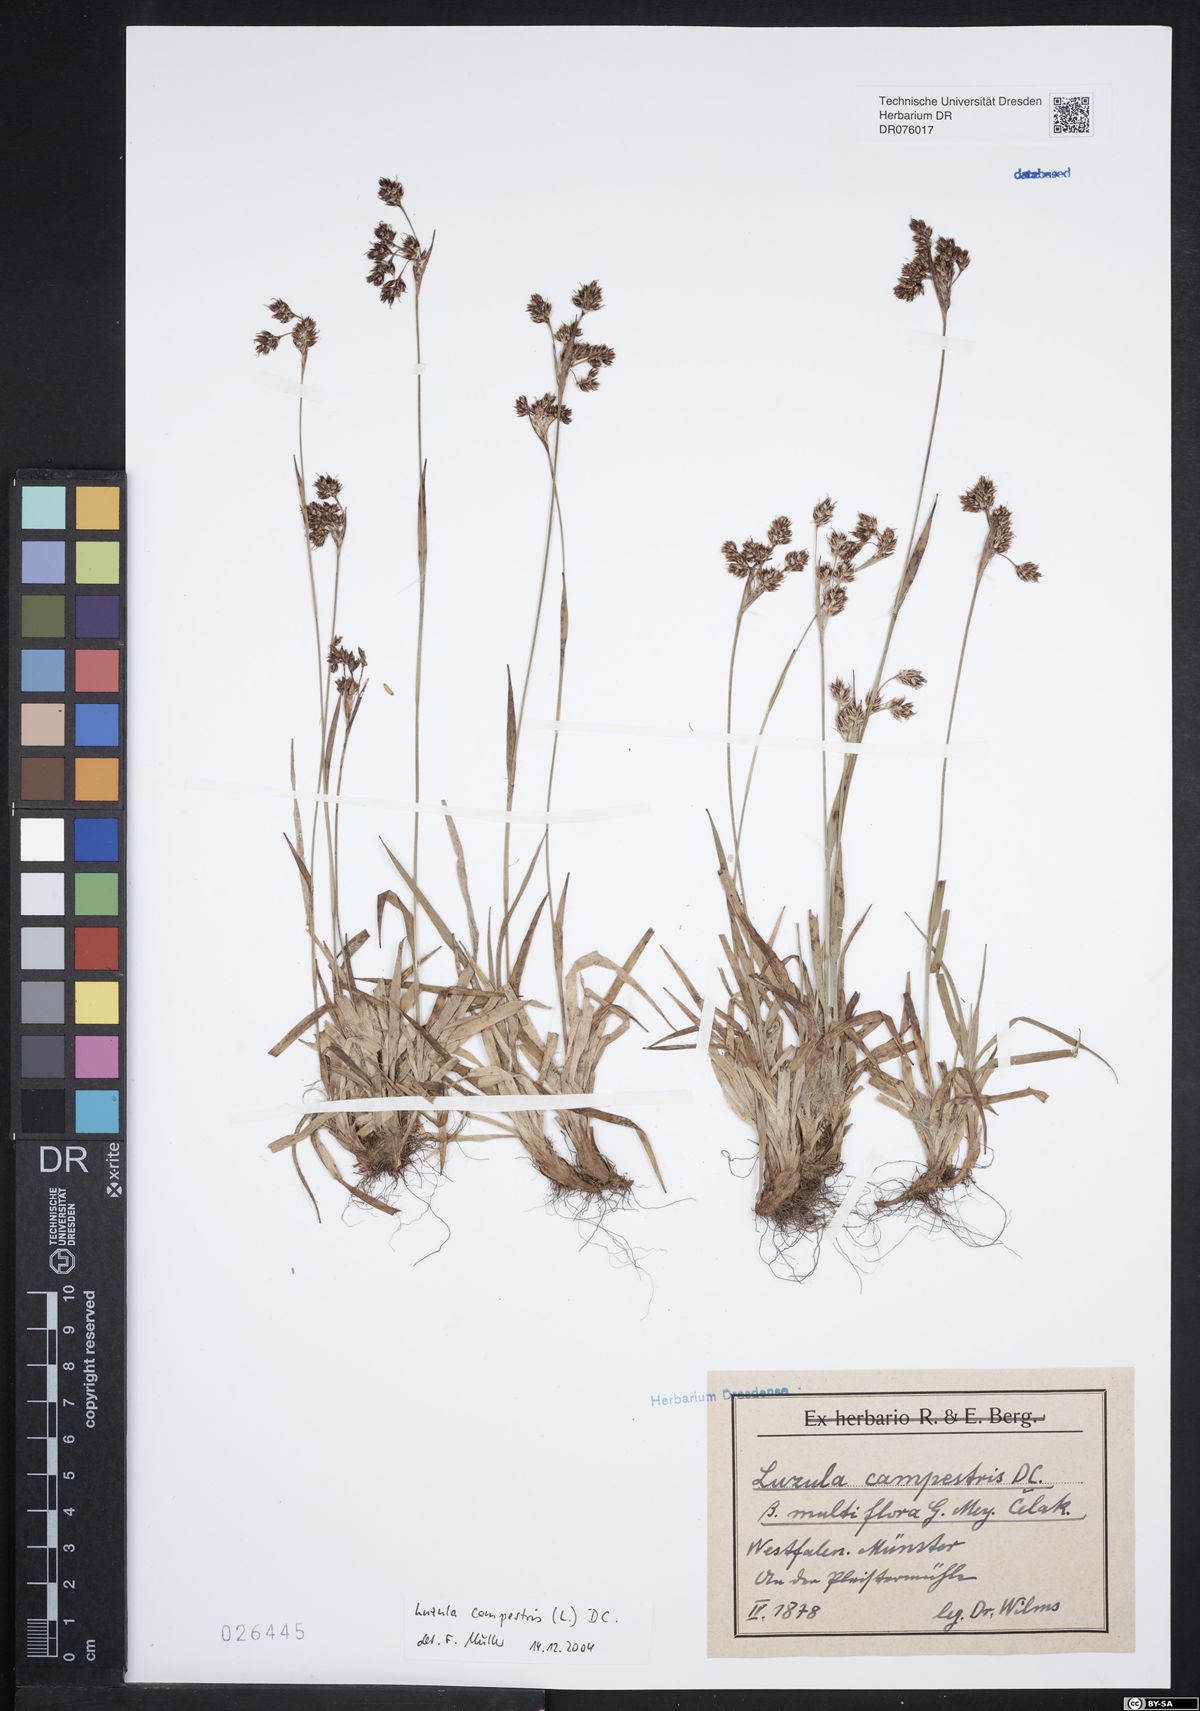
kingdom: Plantae
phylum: Tracheophyta
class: Liliopsida
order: Poales
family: Juncaceae
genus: Luzula
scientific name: Luzula campestris
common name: Field wood-rush
